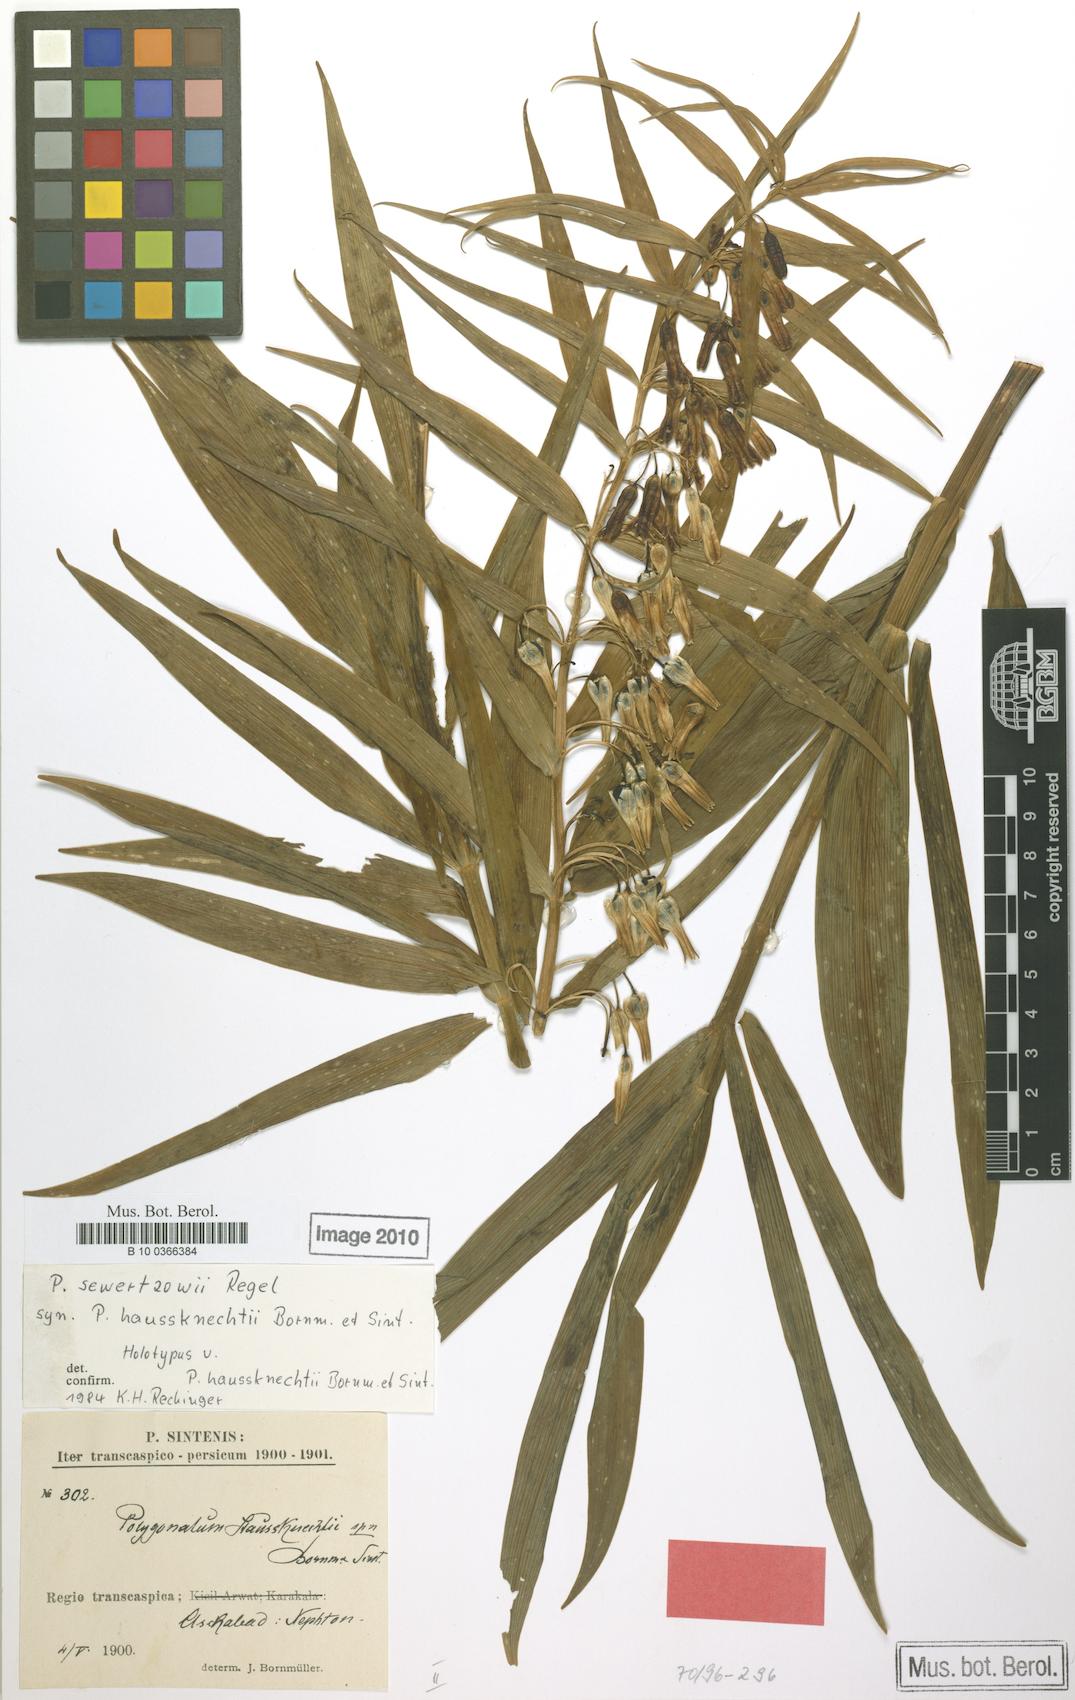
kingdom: Plantae
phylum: Tracheophyta
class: Liliopsida
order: Asparagales
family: Asparagaceae
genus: Polygonatum
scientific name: Polygonatum sewerzowii
